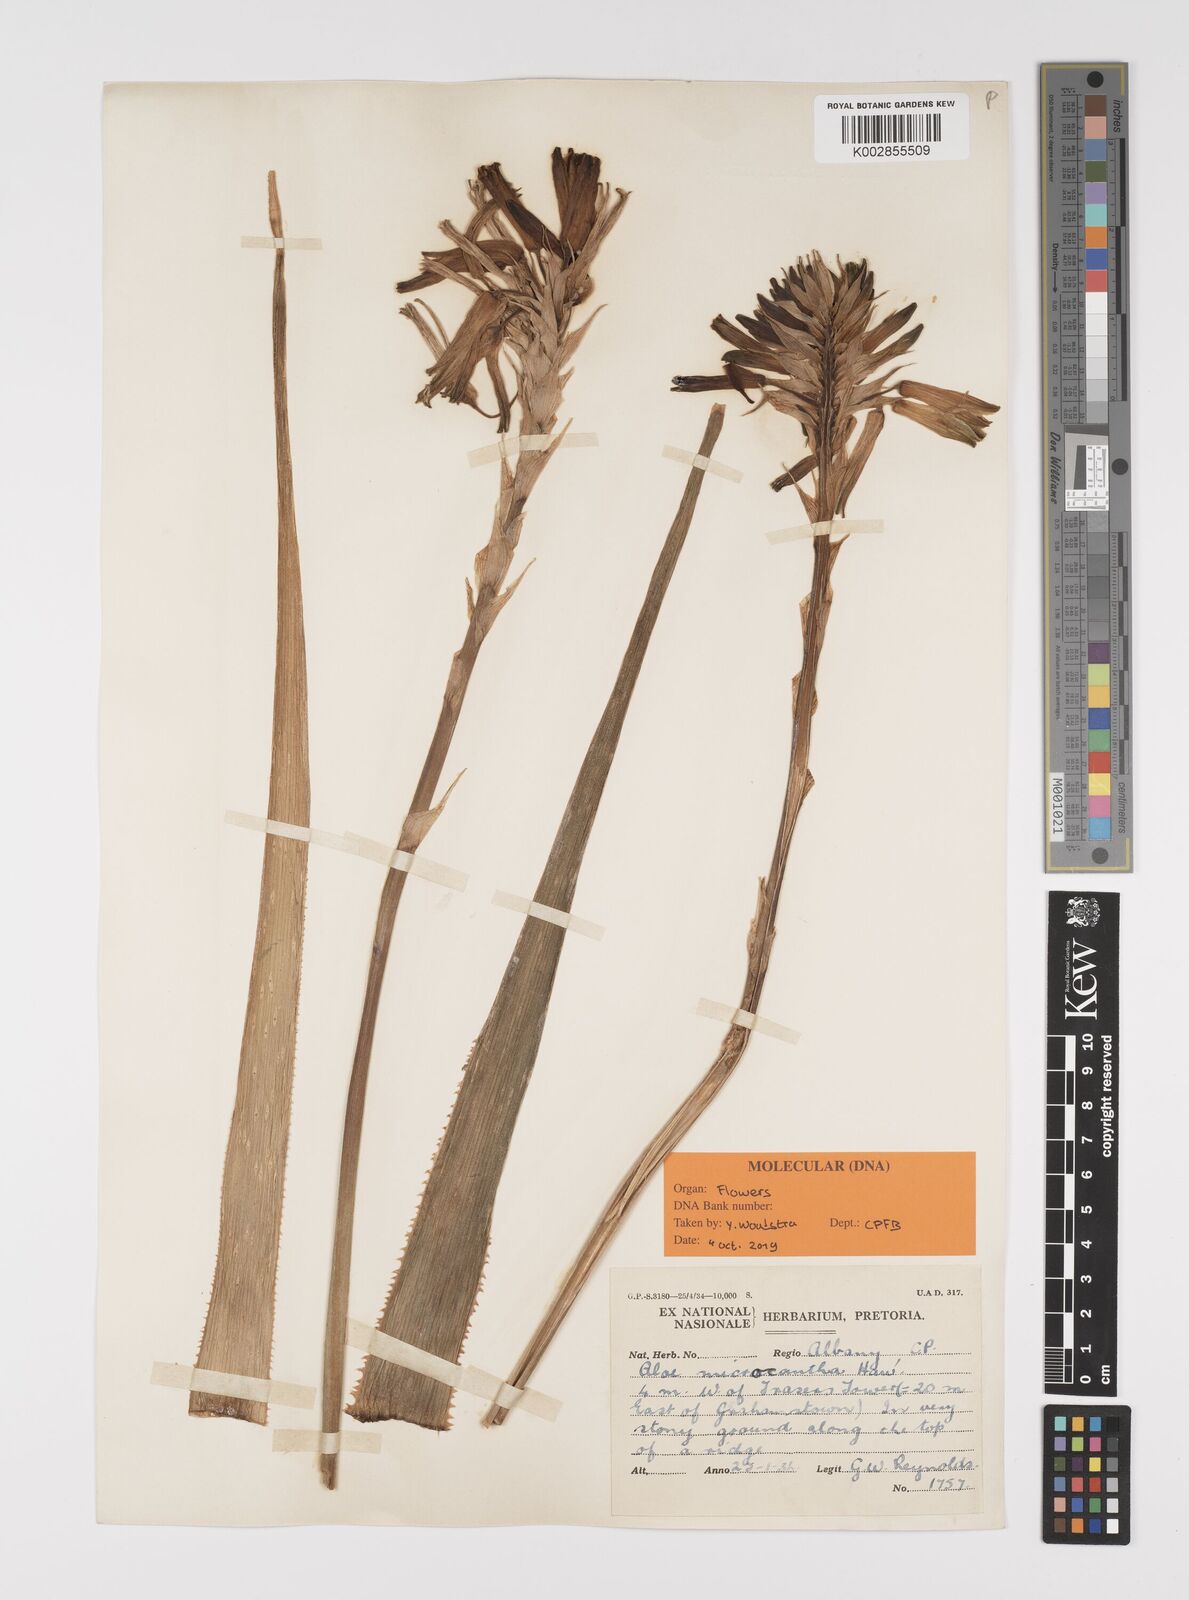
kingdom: Plantae
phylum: Tracheophyta
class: Liliopsida
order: Asparagales
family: Asphodelaceae
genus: Aloe
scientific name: Aloe micracantha
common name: Fynbos grass aloe
